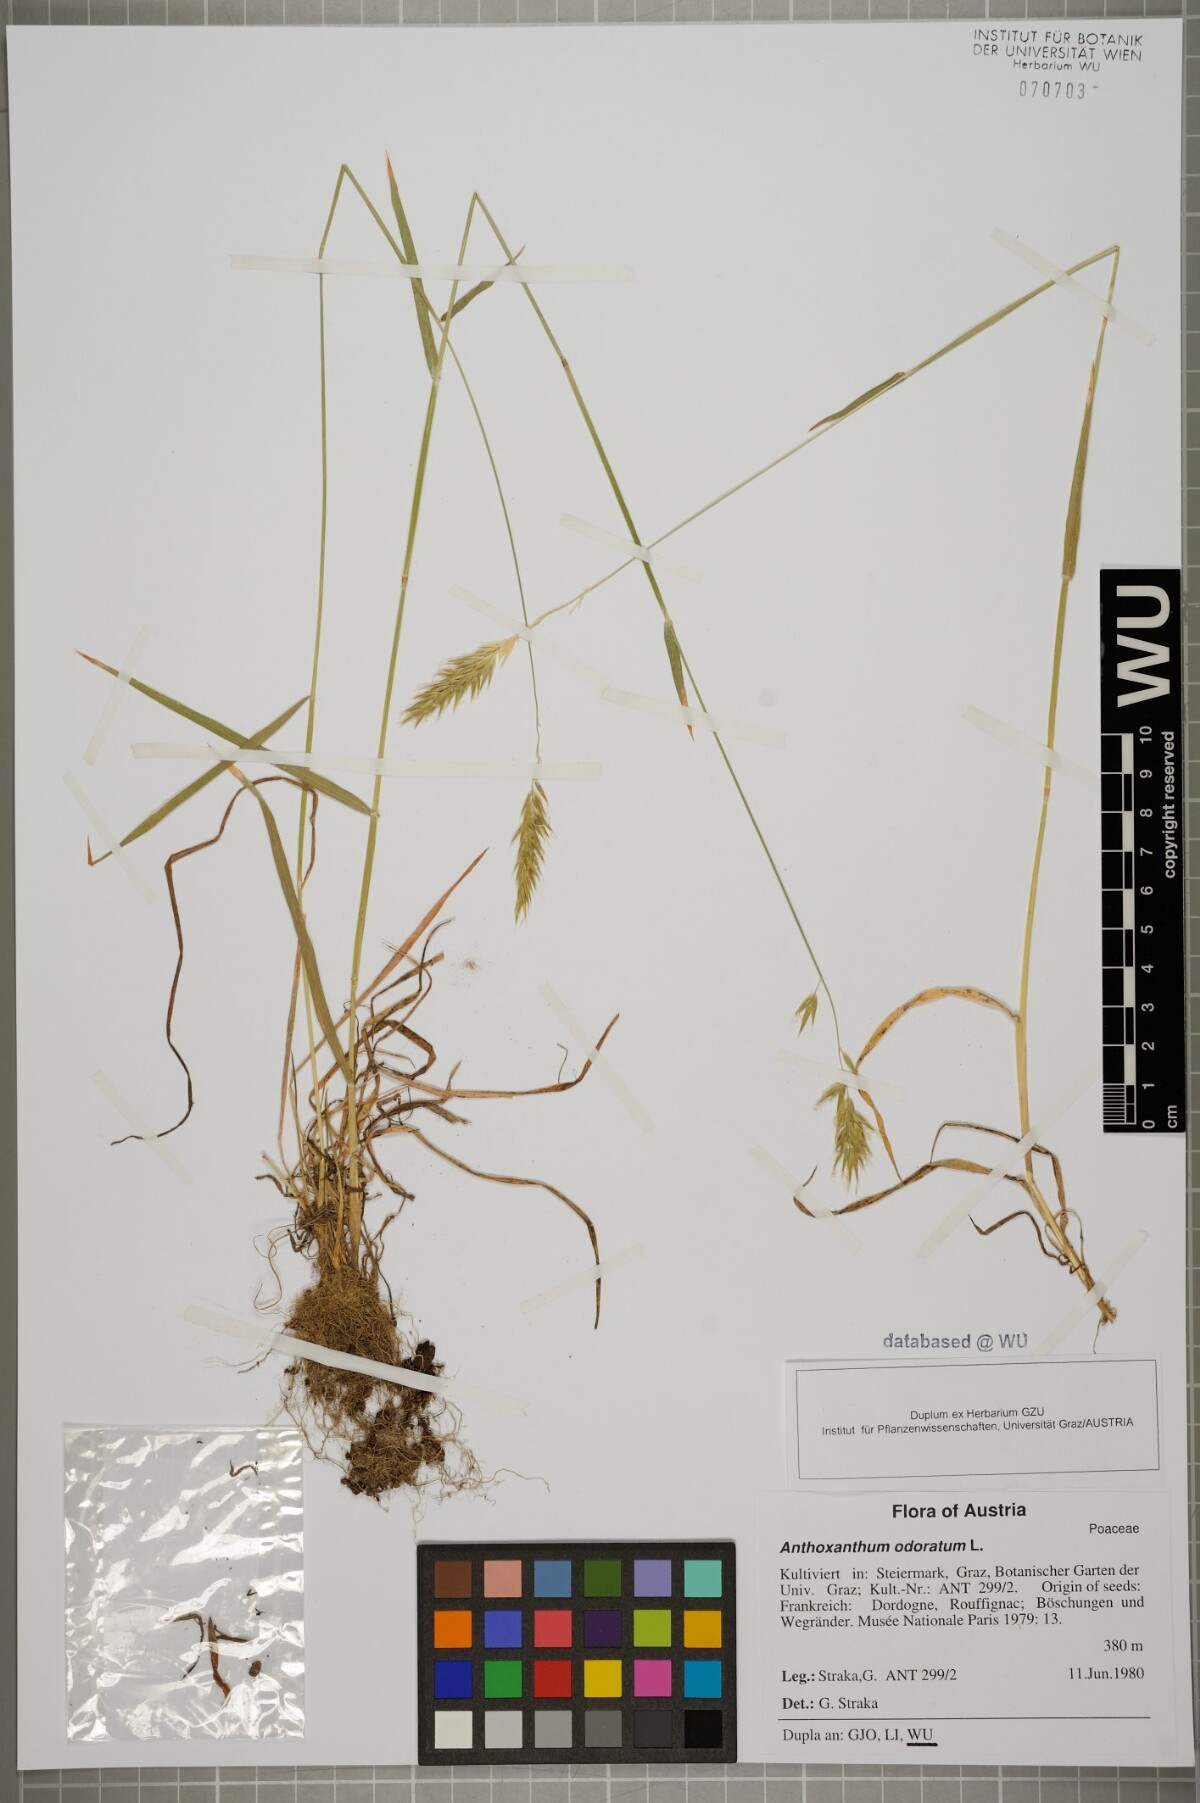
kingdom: Plantae
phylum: Tracheophyta
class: Liliopsida
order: Poales
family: Poaceae
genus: Anthoxanthum
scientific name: Anthoxanthum odoratum
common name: Sweet vernalgrass
